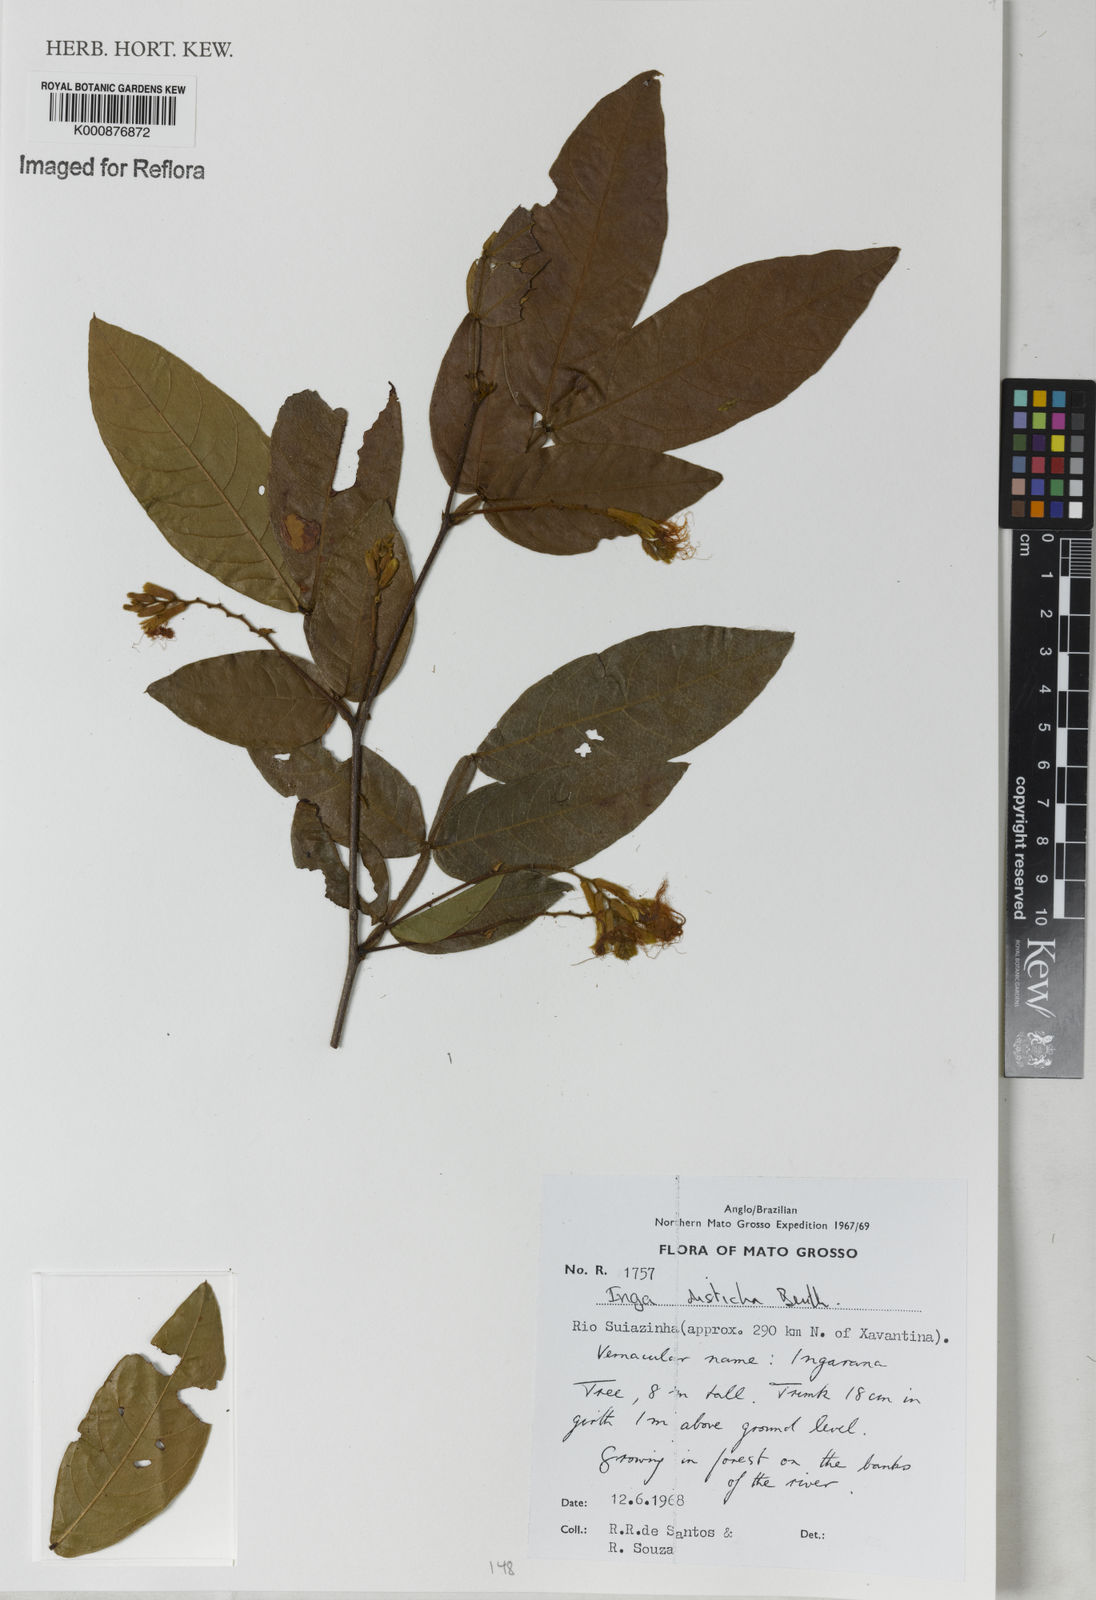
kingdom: Plantae
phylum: Tracheophyta
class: Magnoliopsida
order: Fabales
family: Fabaceae
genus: Inga
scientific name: Inga disticha
